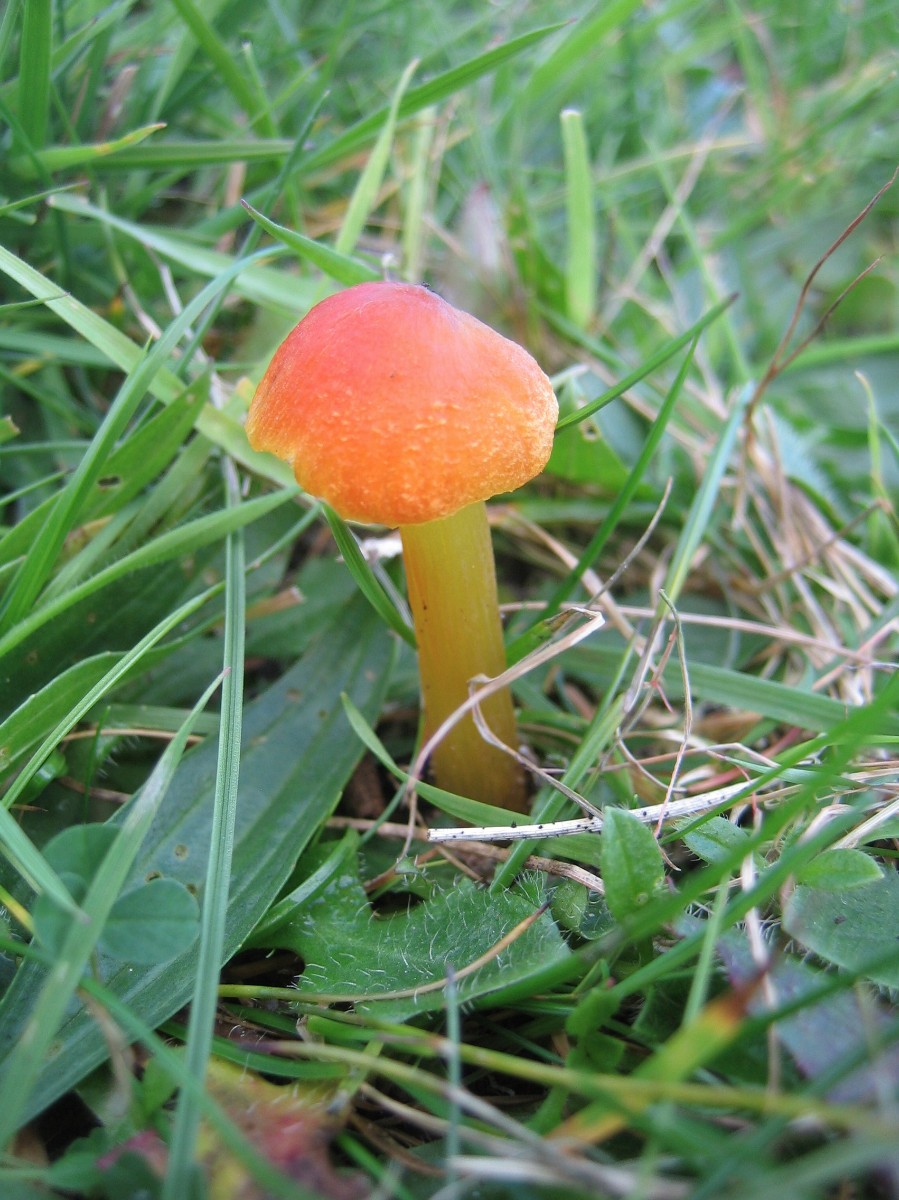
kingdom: Fungi
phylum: Basidiomycota
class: Agaricomycetes
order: Agaricales
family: Hygrophoraceae
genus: Hygrocybe
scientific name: Hygrocybe conica
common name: kegle-vokshat
